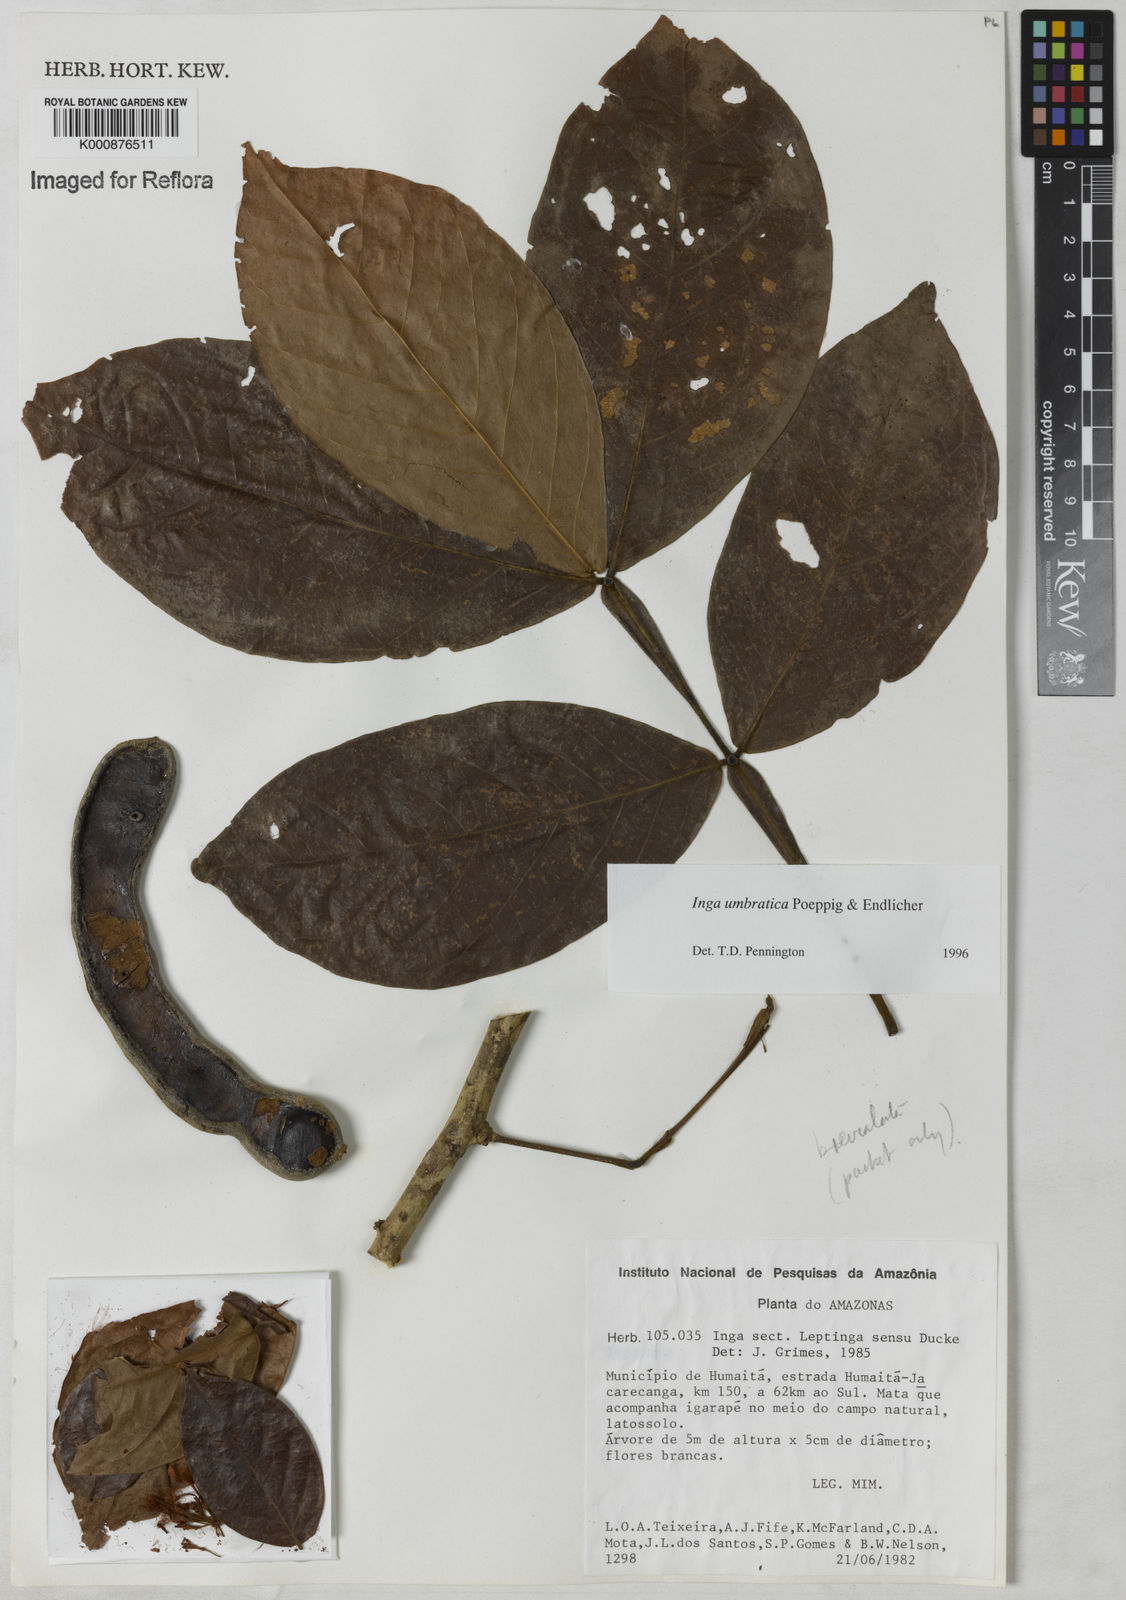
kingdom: Plantae
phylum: Tracheophyta
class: Magnoliopsida
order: Fabales
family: Fabaceae
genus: Inga
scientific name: Inga umbratica
